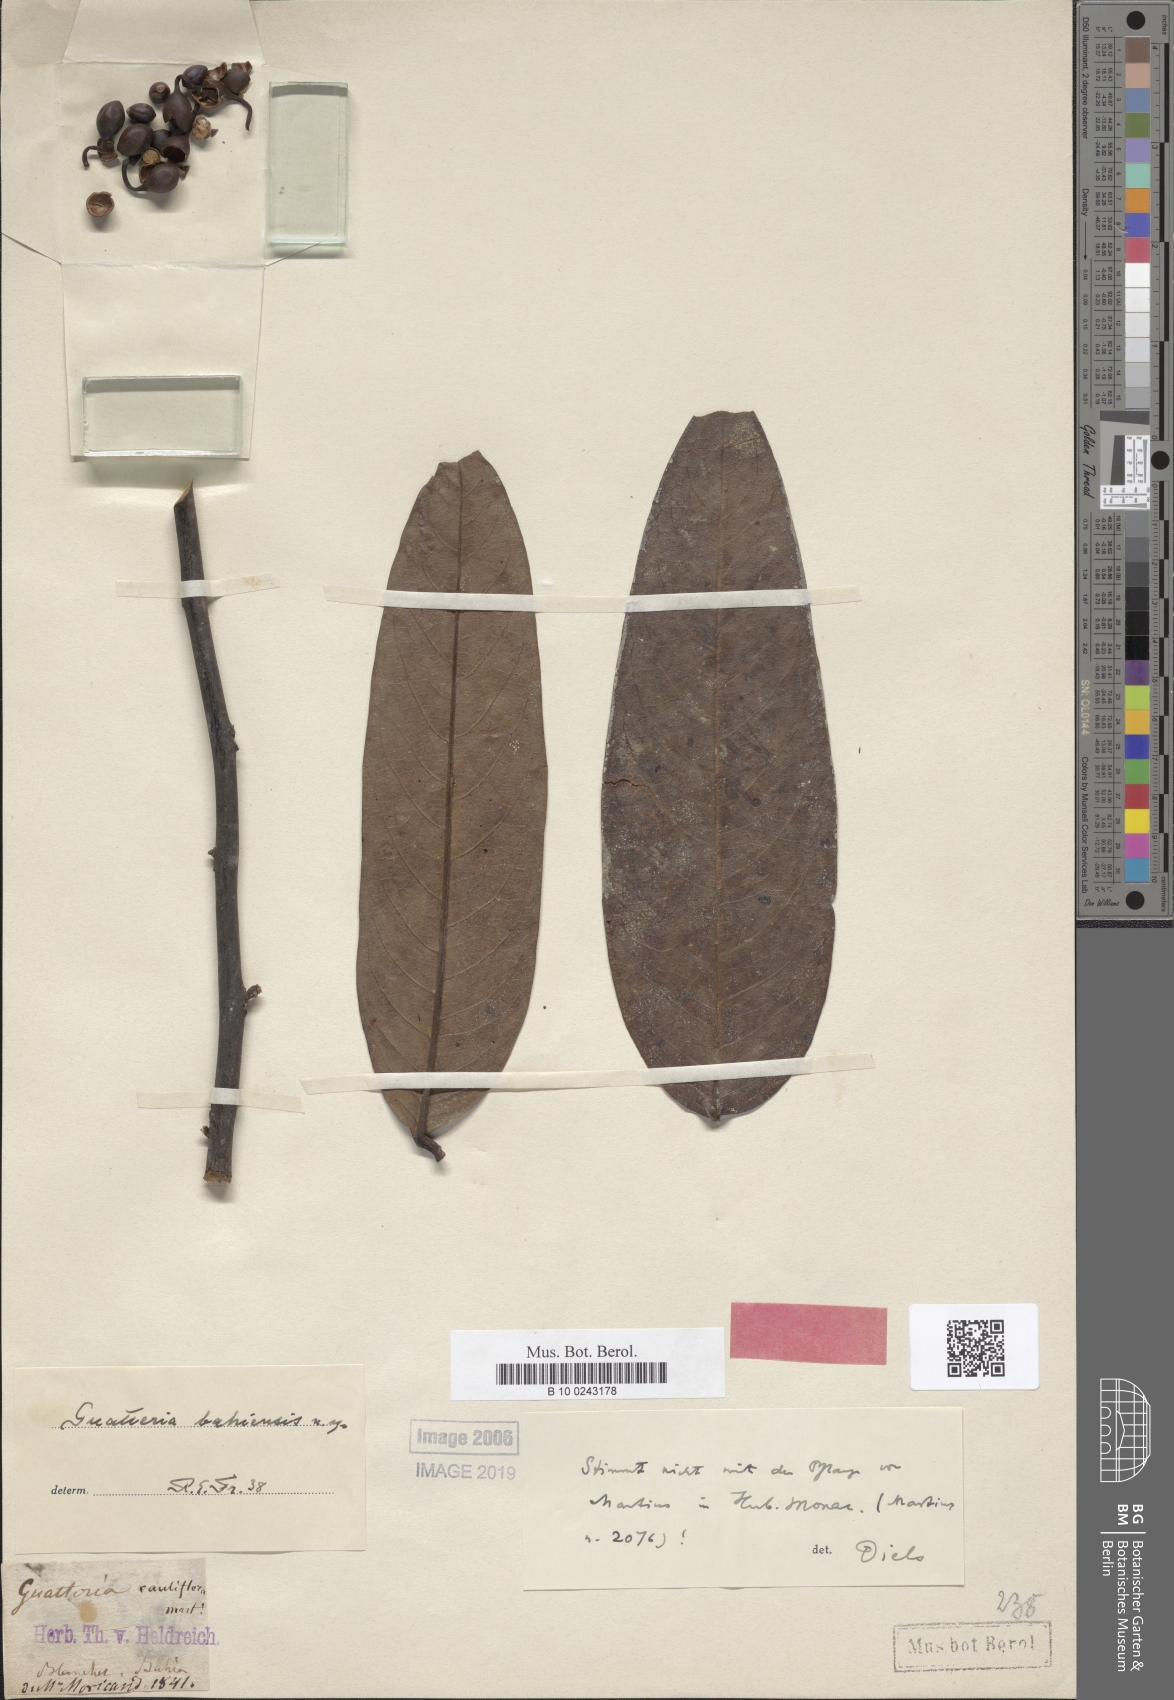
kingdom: Plantae
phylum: Tracheophyta
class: Magnoliopsida
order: Magnoliales
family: Annonaceae
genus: Guatteria
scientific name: Guatteria oligocarpa
